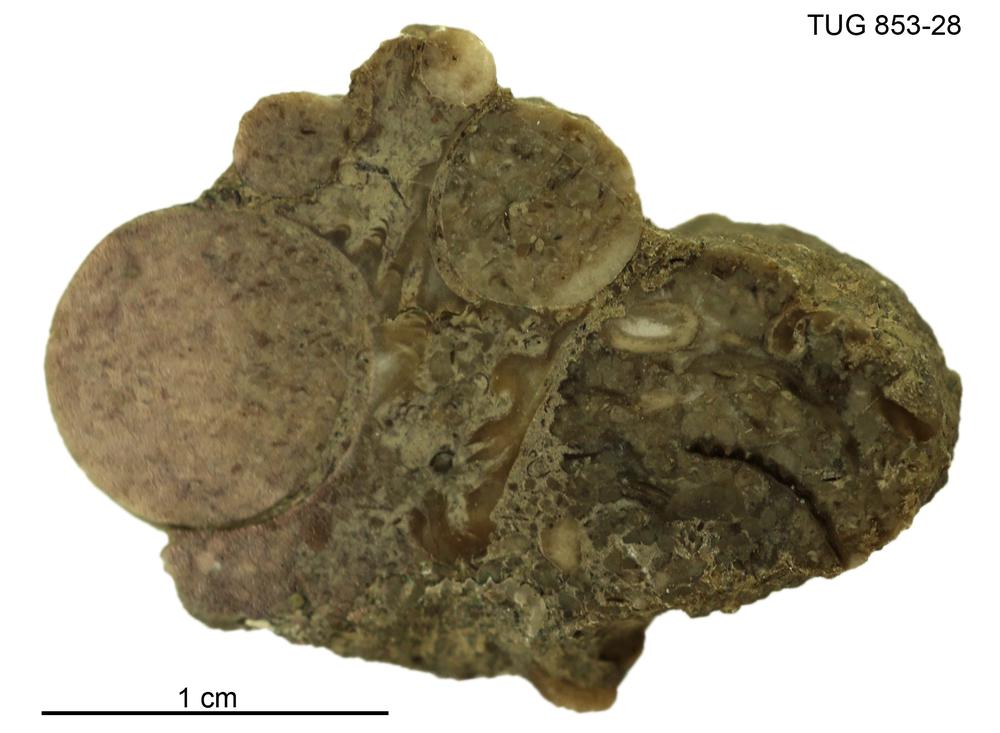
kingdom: Animalia
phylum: Mollusca
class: Gastropoda
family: Euomphalidae
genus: Euomphalus
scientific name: Euomphalus
